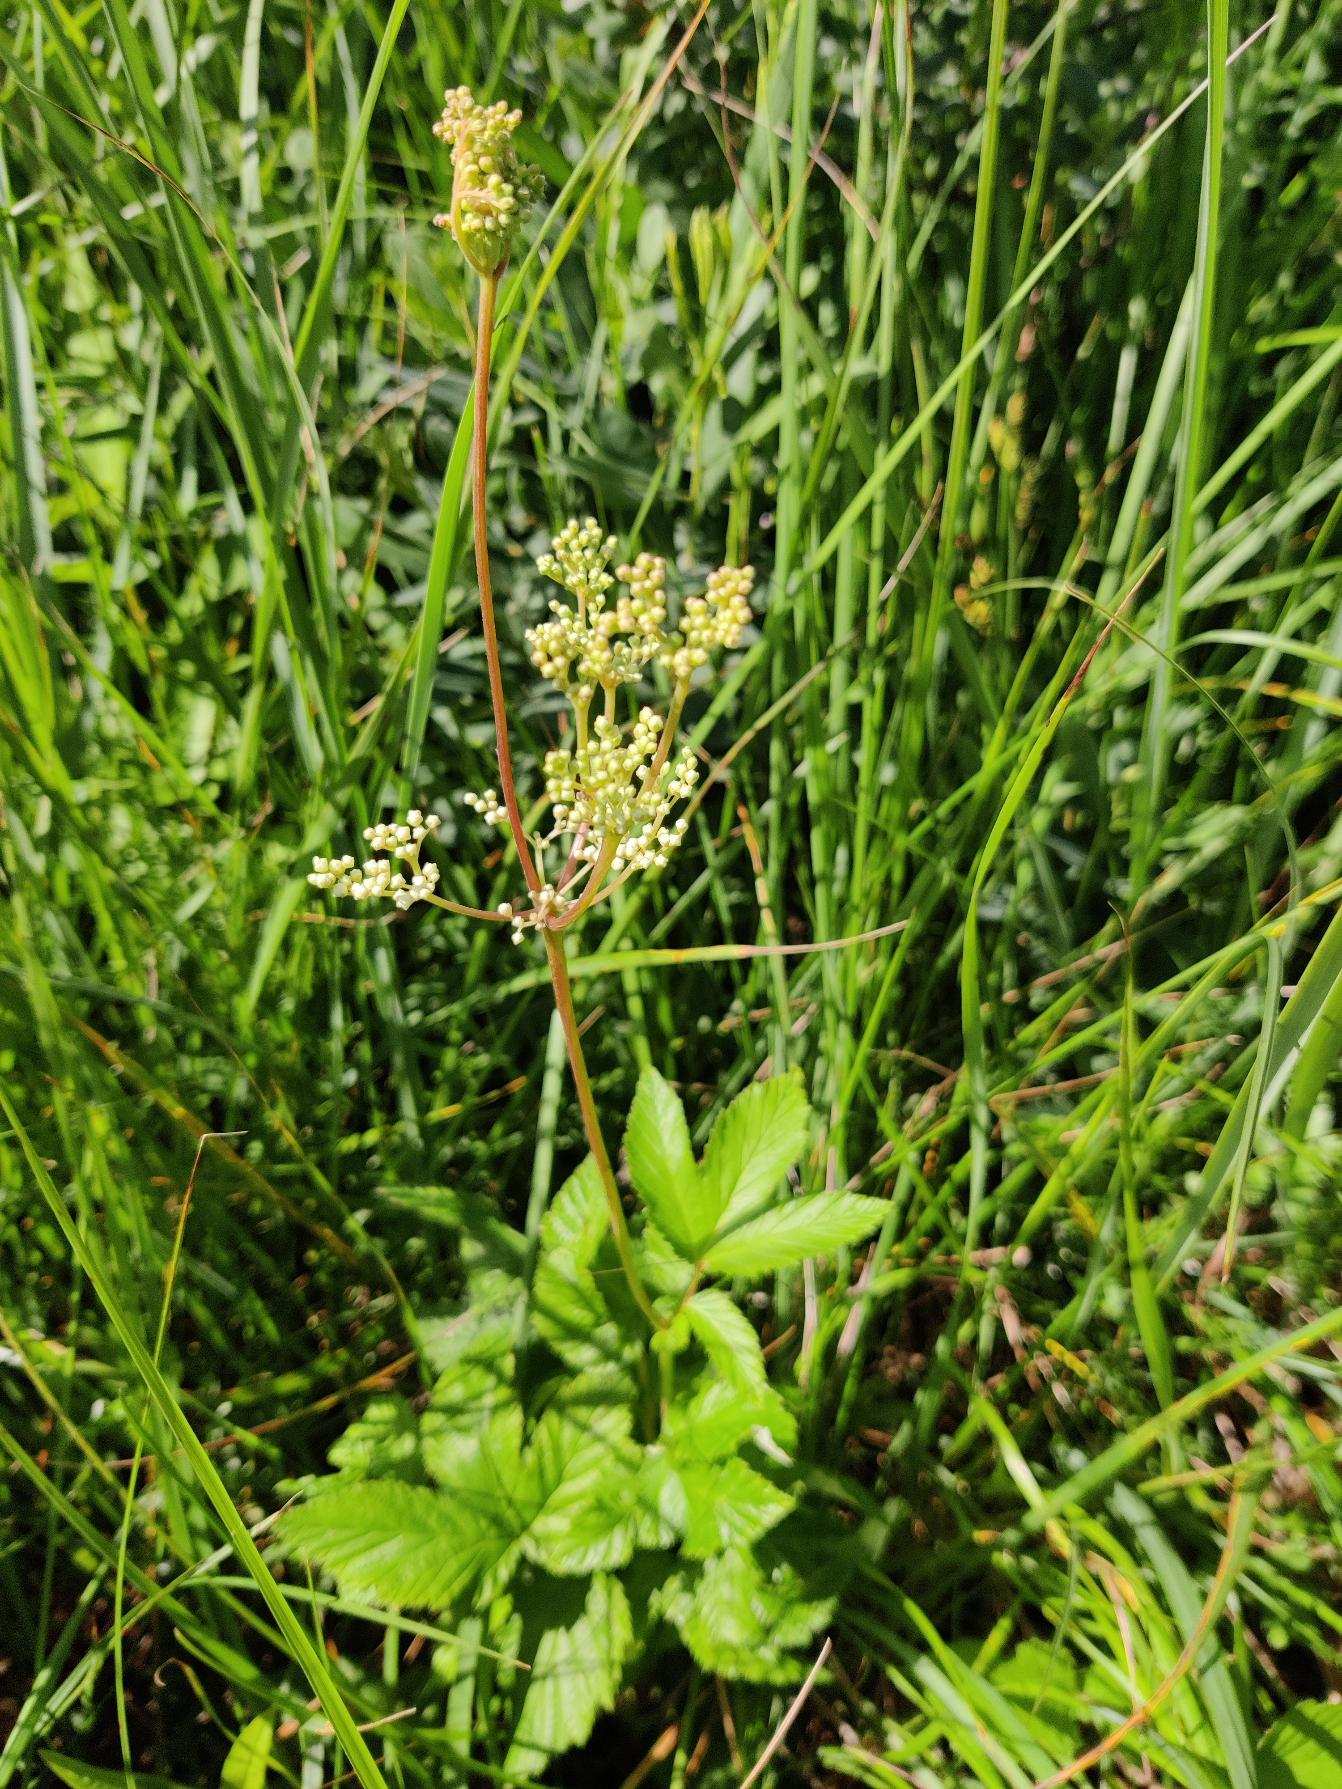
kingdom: Plantae
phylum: Tracheophyta
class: Magnoliopsida
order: Rosales
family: Rosaceae
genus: Filipendula
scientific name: Filipendula ulmaria
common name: Almindelig mjødurt
